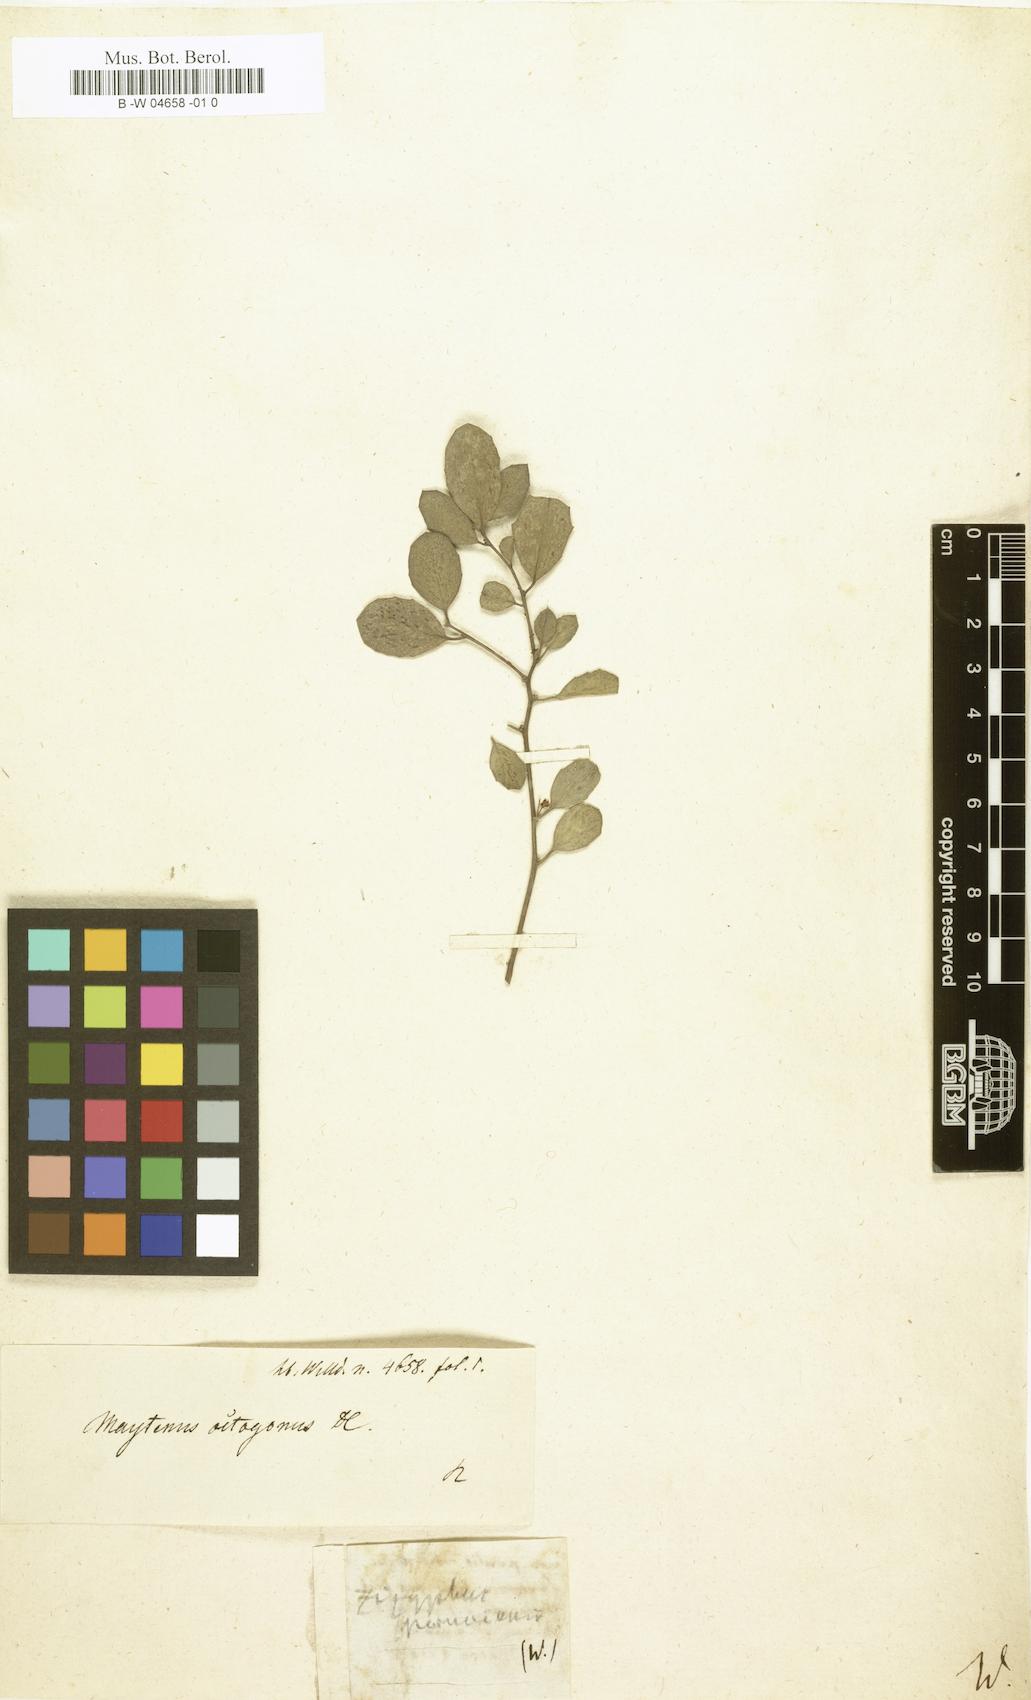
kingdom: Plantae
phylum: Tracheophyta
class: Magnoliopsida
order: Celastrales
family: Celastraceae
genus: Tricerma
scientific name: Tricerma octogonum
